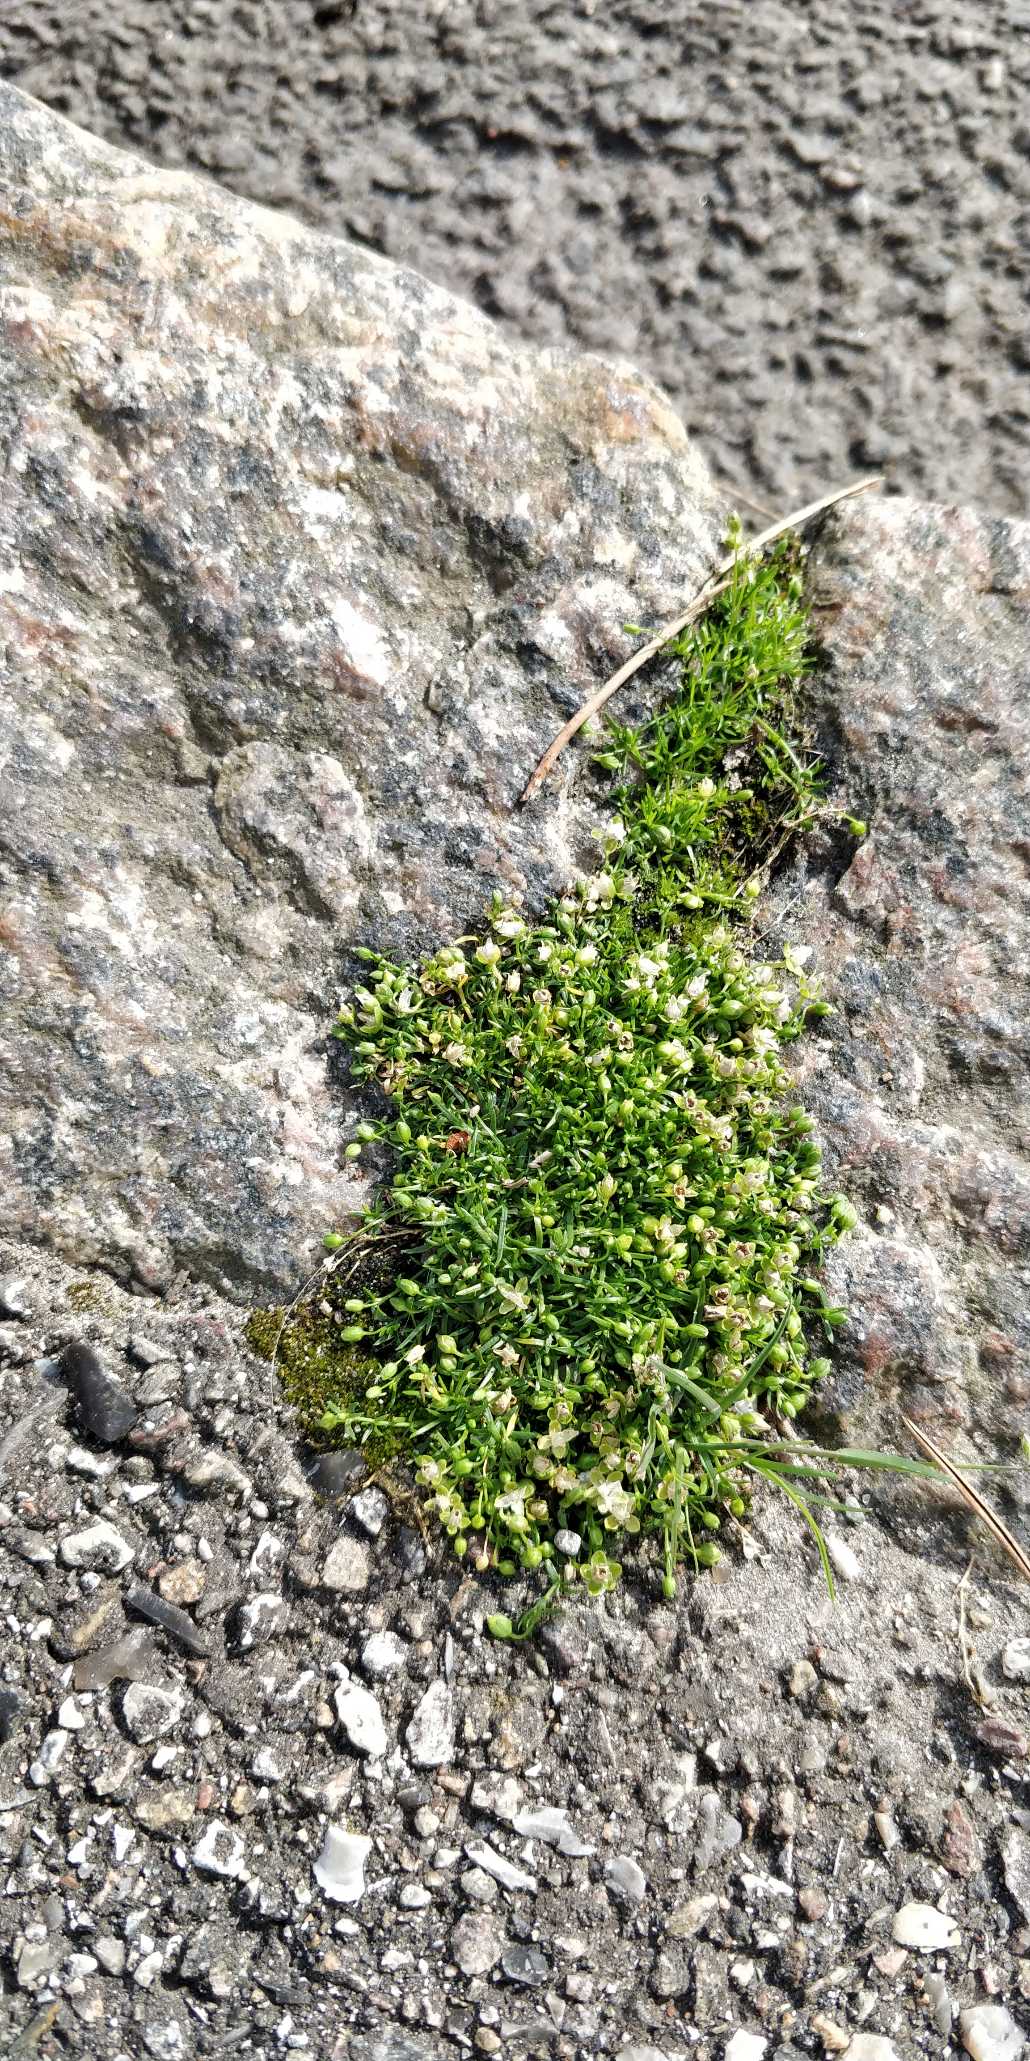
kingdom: Plantae
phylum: Tracheophyta
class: Magnoliopsida
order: Caryophyllales
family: Caryophyllaceae
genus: Sagina
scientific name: Sagina procumbens
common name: Almindelig firling
